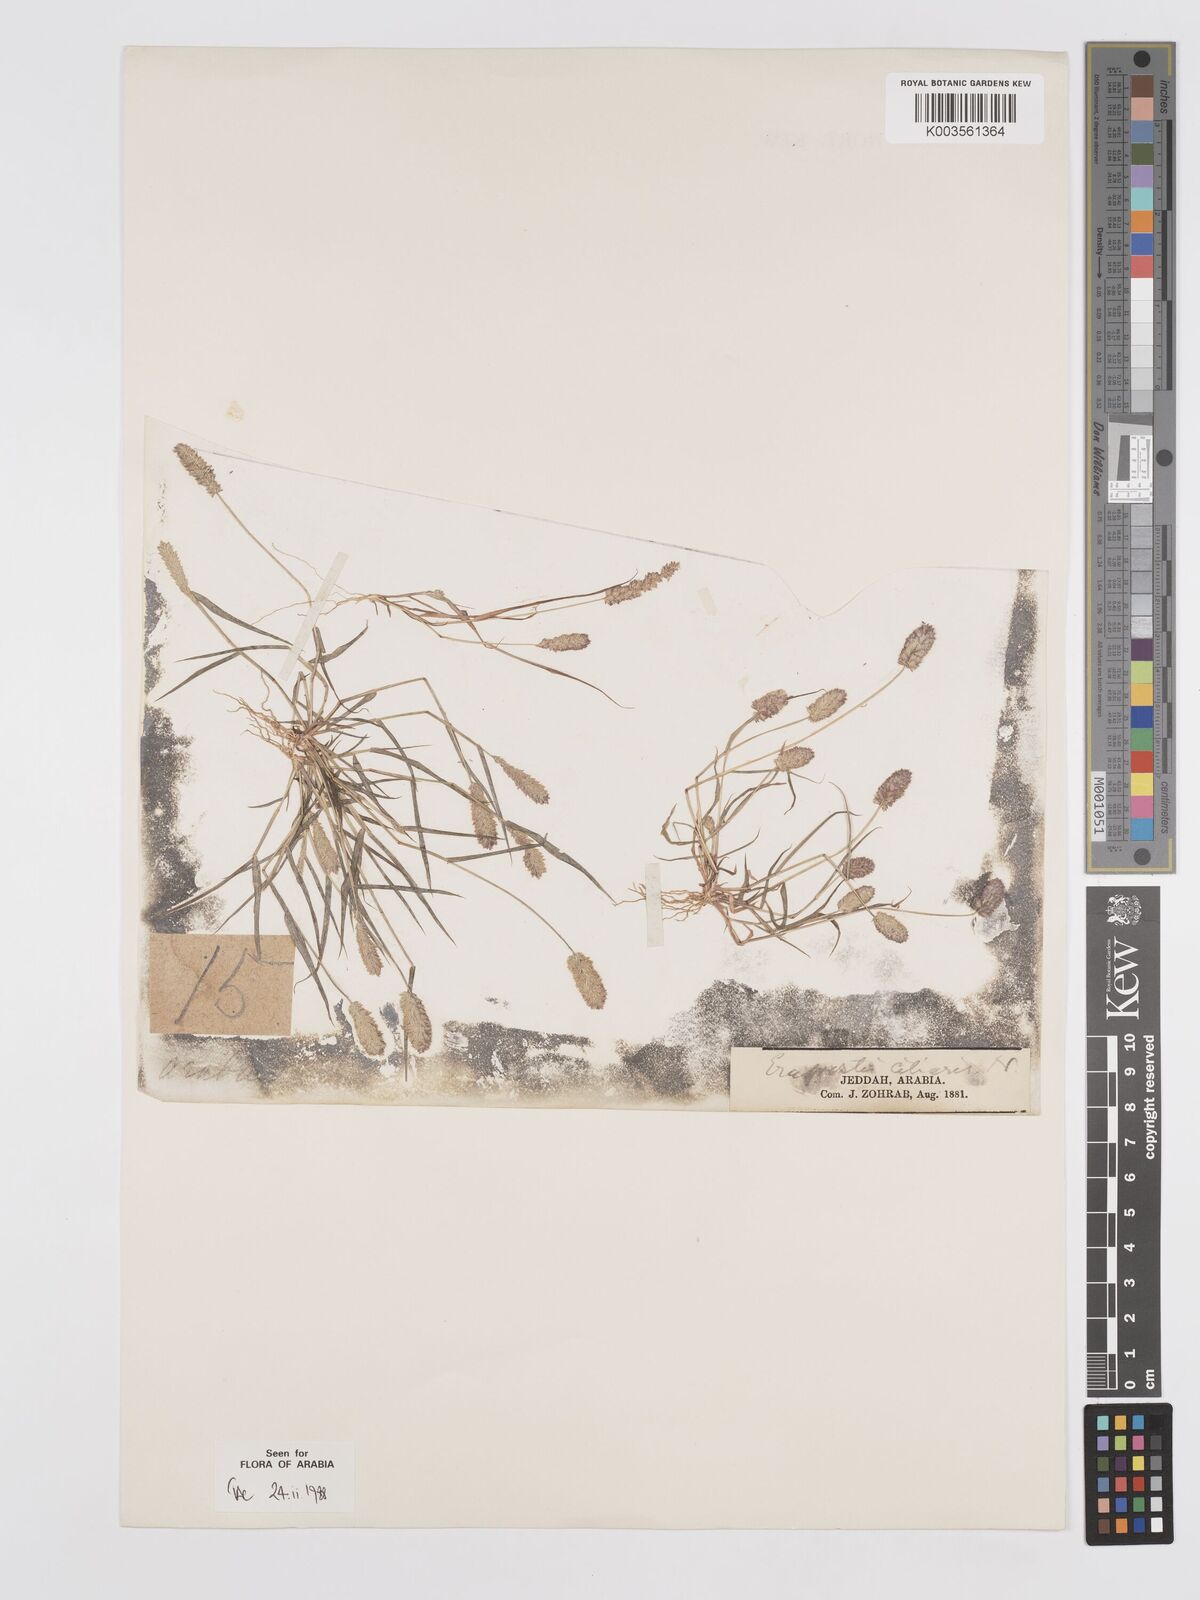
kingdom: Plantae
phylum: Tracheophyta
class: Liliopsida
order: Poales
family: Poaceae
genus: Eragrostis
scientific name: Eragrostis ciliaris
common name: Gophertail lovegrass
